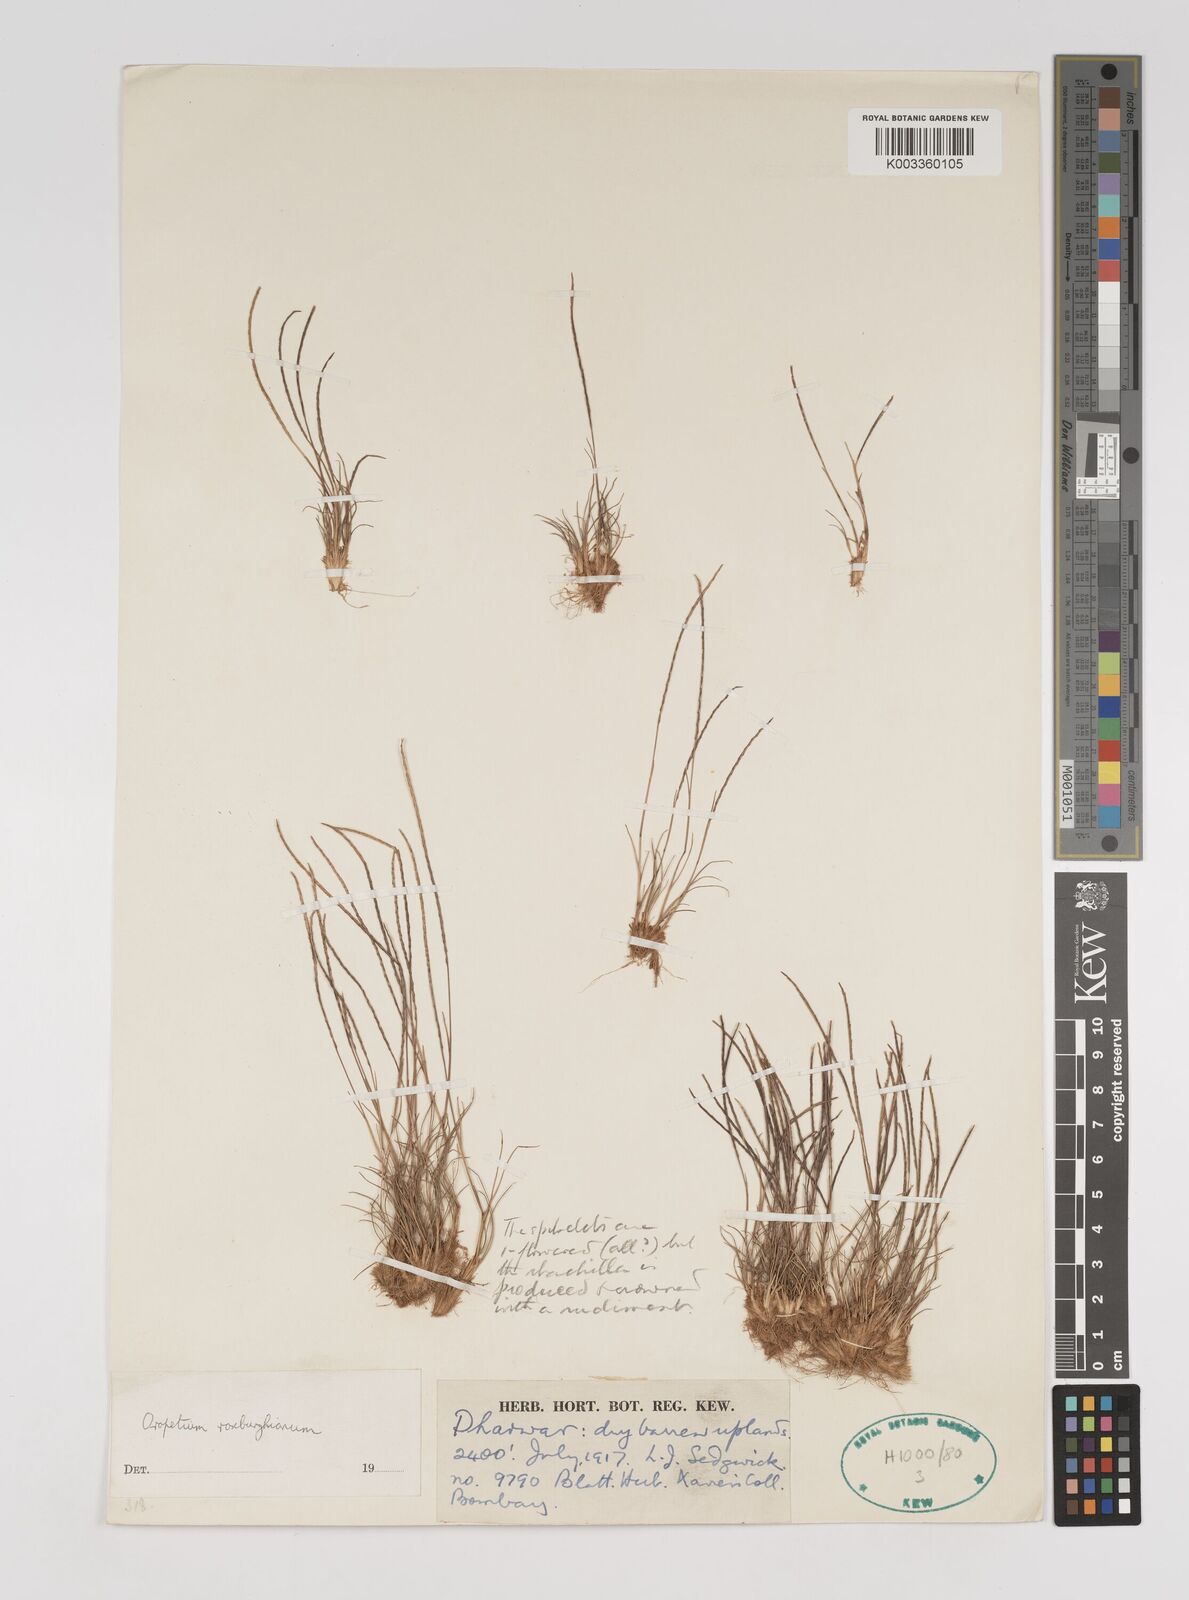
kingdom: Plantae
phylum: Tracheophyta
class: Liliopsida
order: Poales
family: Poaceae
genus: Oropetium
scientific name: Oropetium roxburghianum
